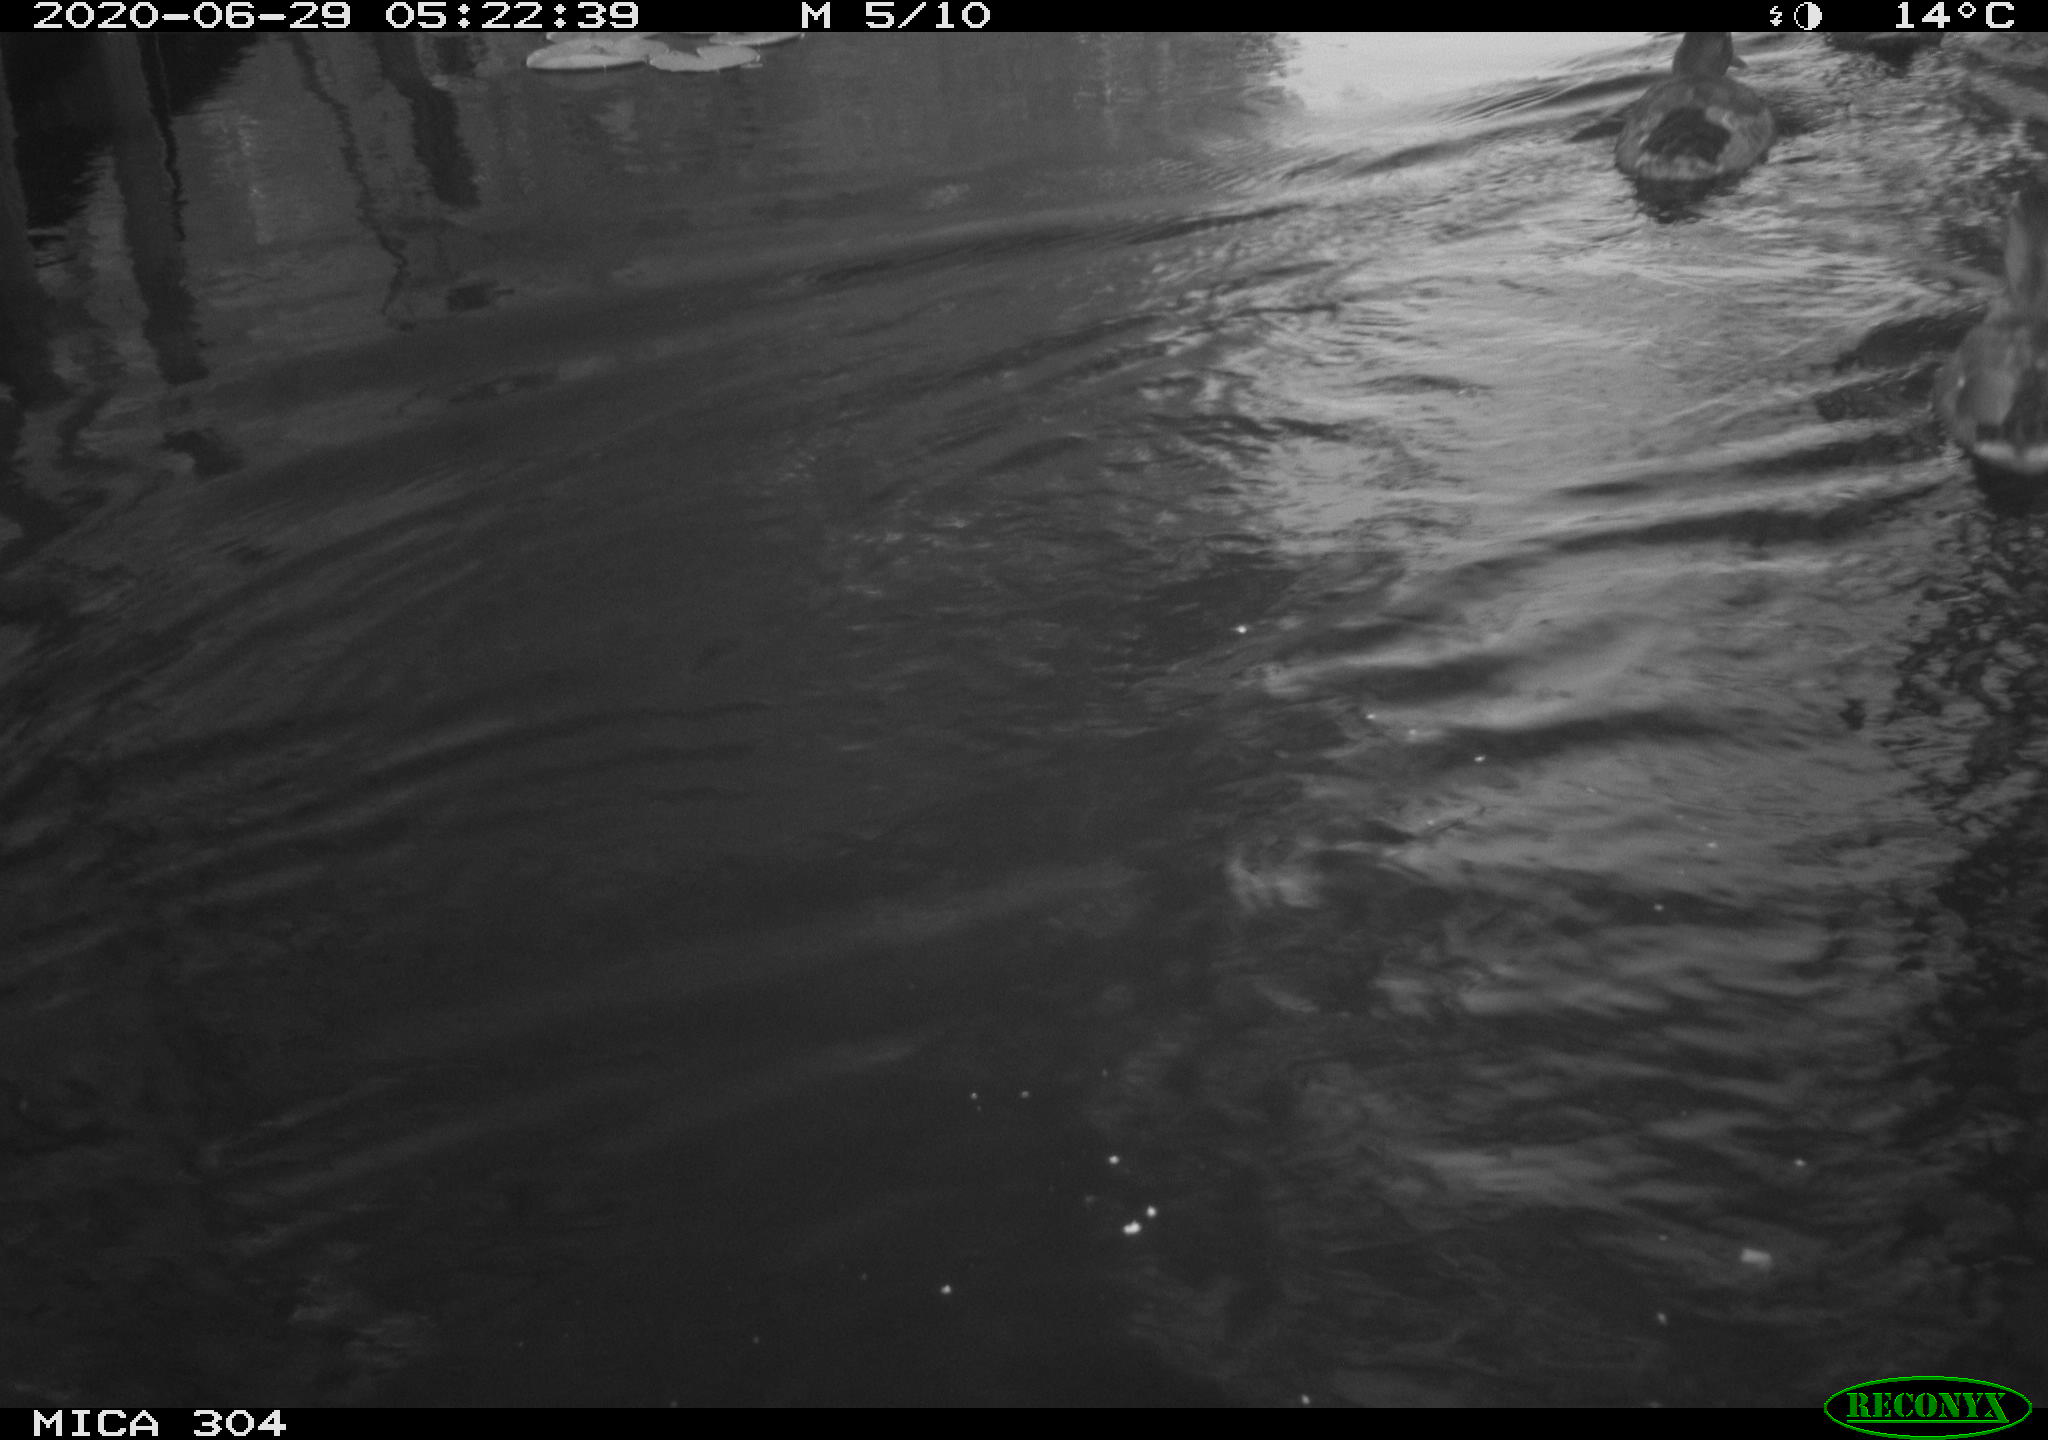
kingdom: Animalia
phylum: Chordata
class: Aves
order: Anseriformes
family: Anatidae
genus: Anas
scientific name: Anas platyrhynchos
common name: Mallard
